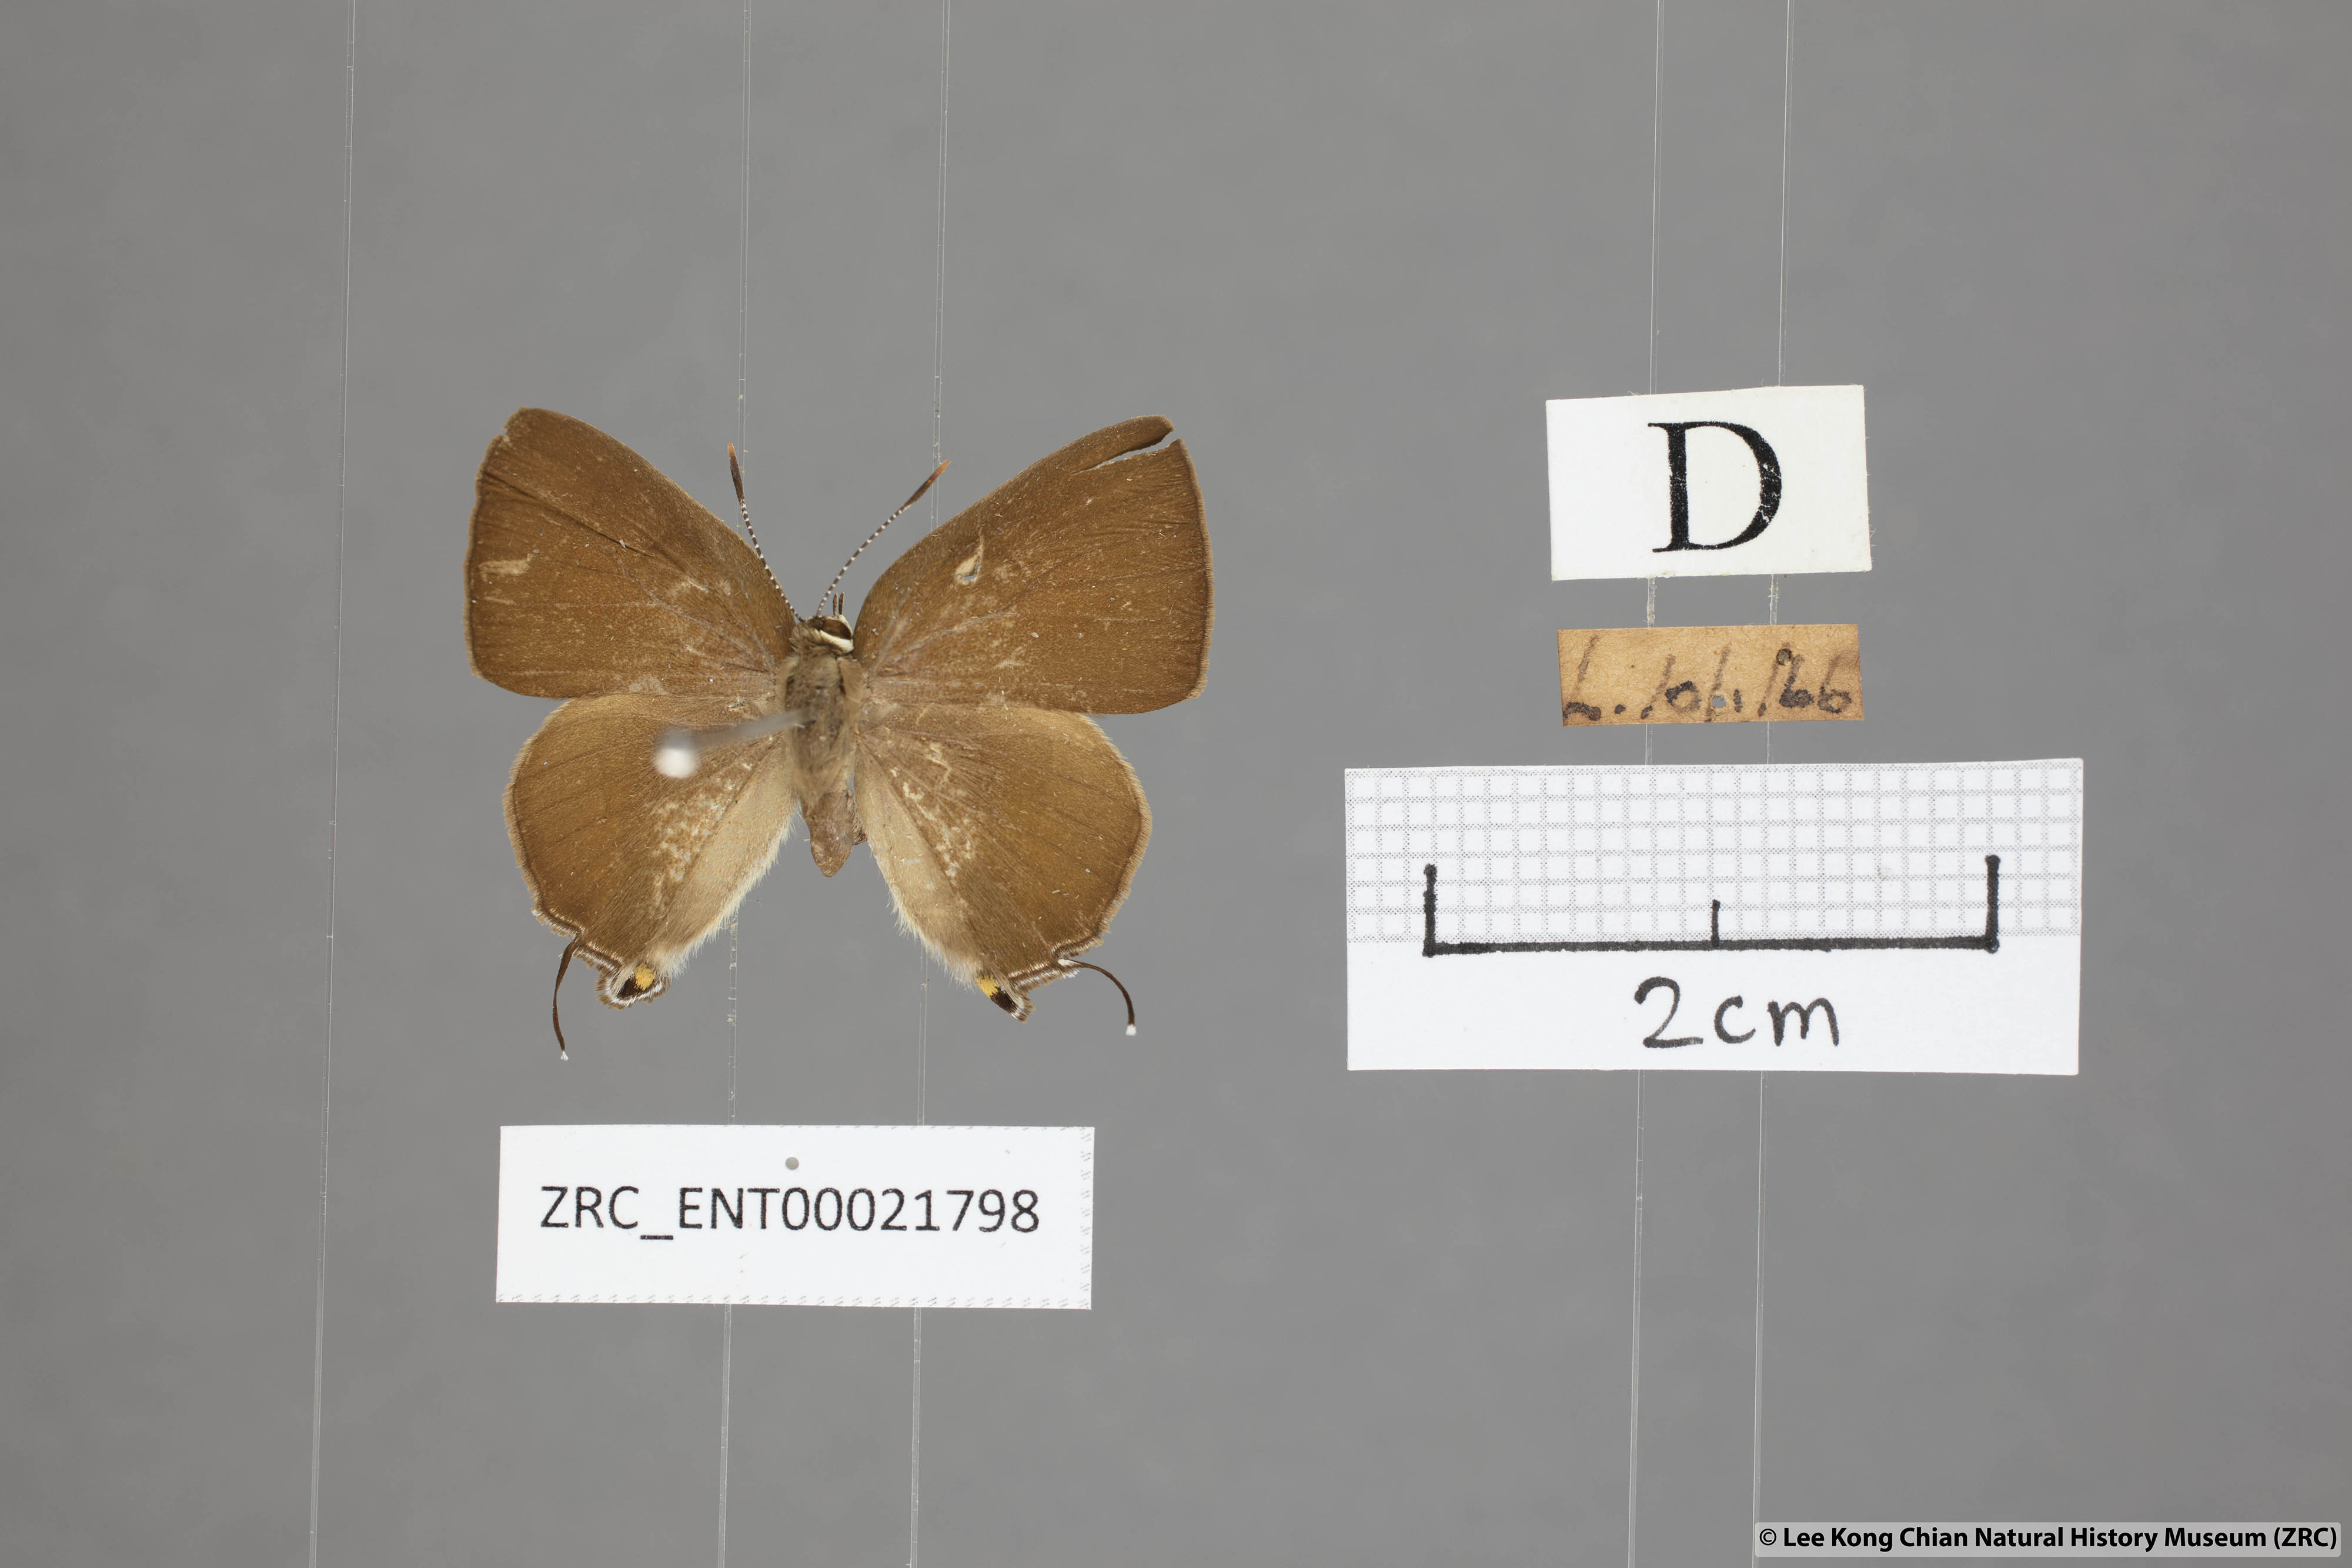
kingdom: Animalia
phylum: Arthropoda
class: Insecta
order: Lepidoptera
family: Lycaenidae
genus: Rapala
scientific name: Rapala dieneces
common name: Scarlet flash
